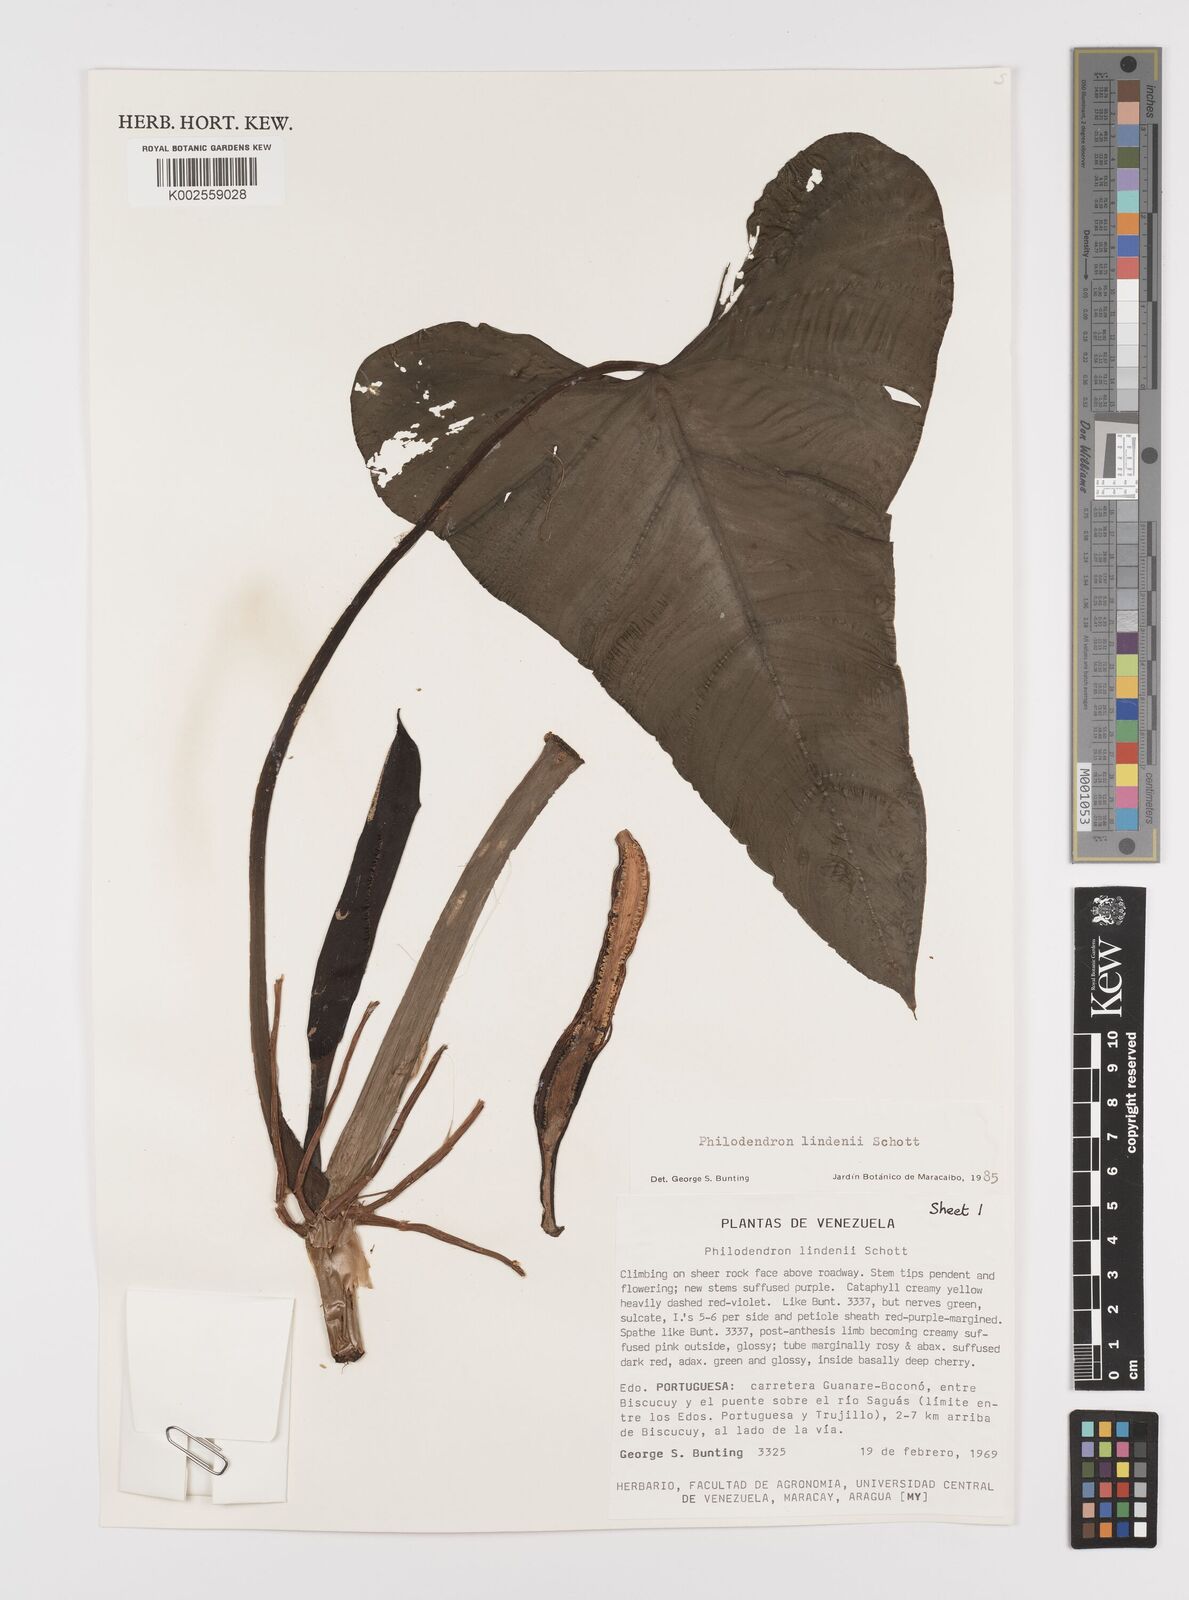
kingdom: Plantae
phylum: Tracheophyta
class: Liliopsida
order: Alismatales
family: Araceae
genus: Philodendron
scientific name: Philodendron lindenii
